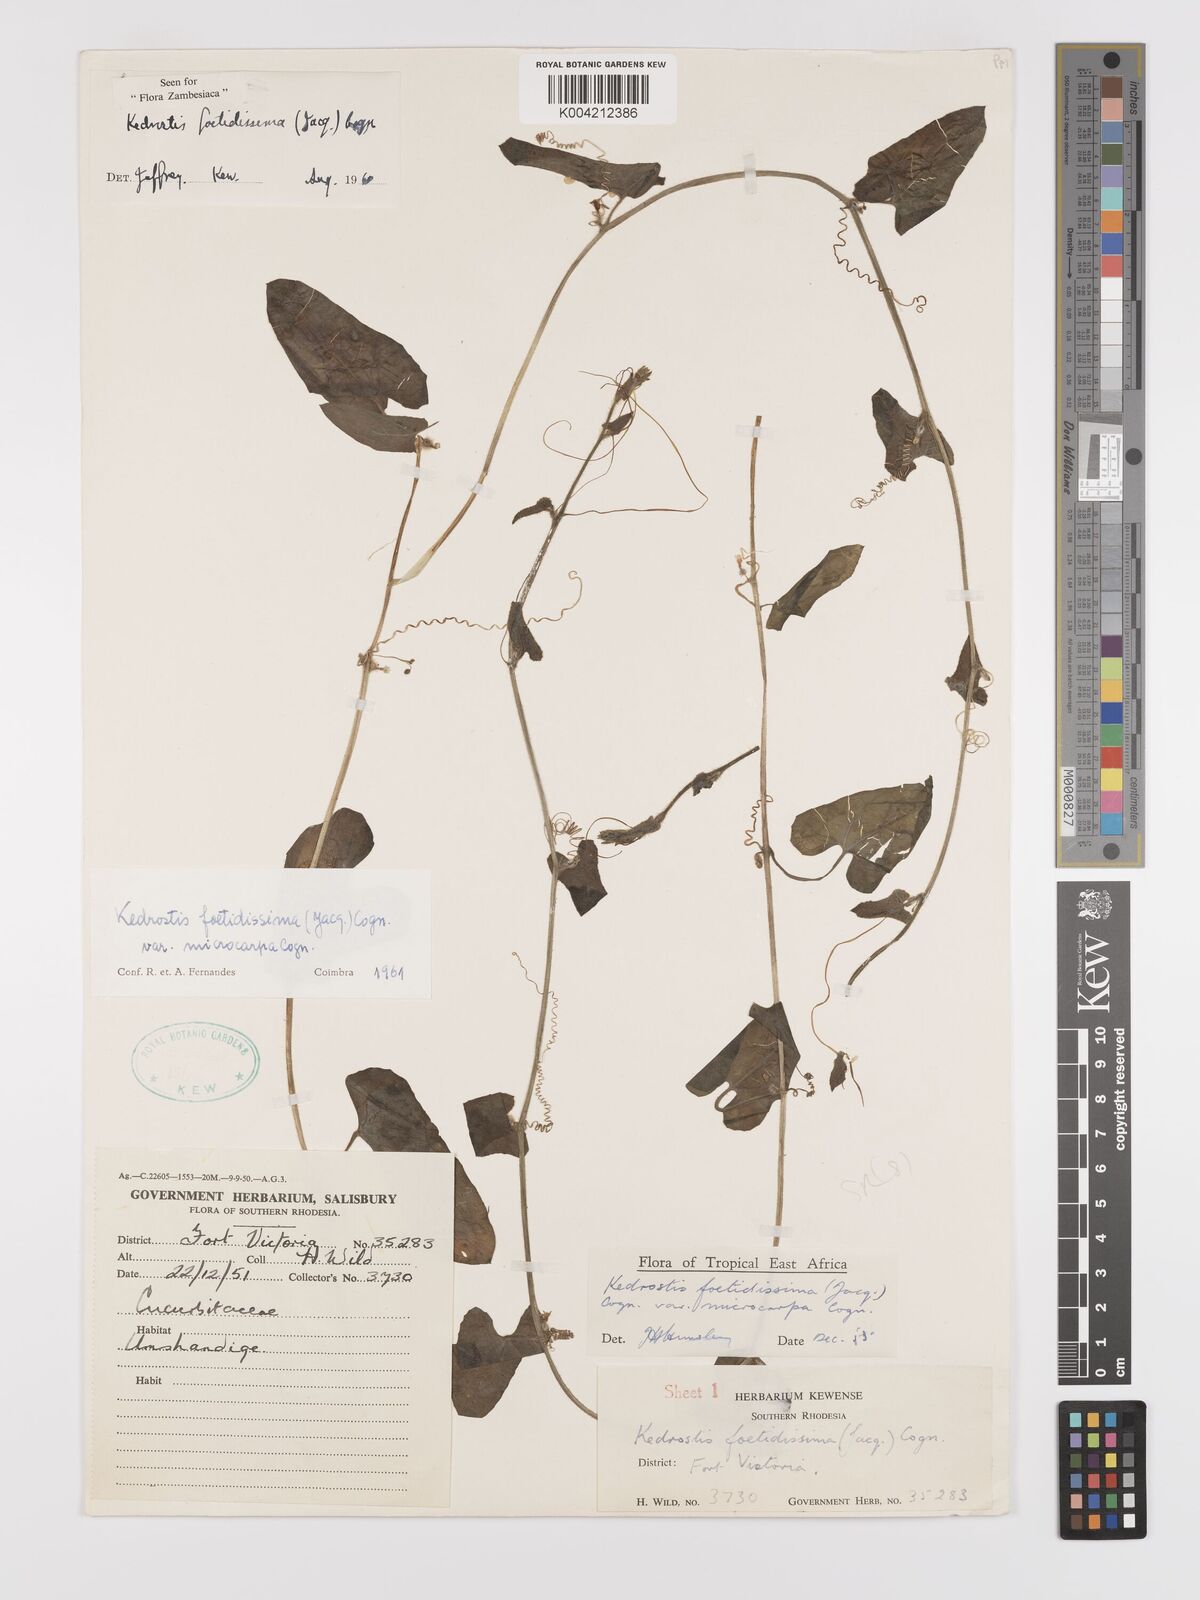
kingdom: Plantae
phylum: Tracheophyta
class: Magnoliopsida
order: Cucurbitales
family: Cucurbitaceae
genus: Kedrostis
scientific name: Kedrostis foetidissima
